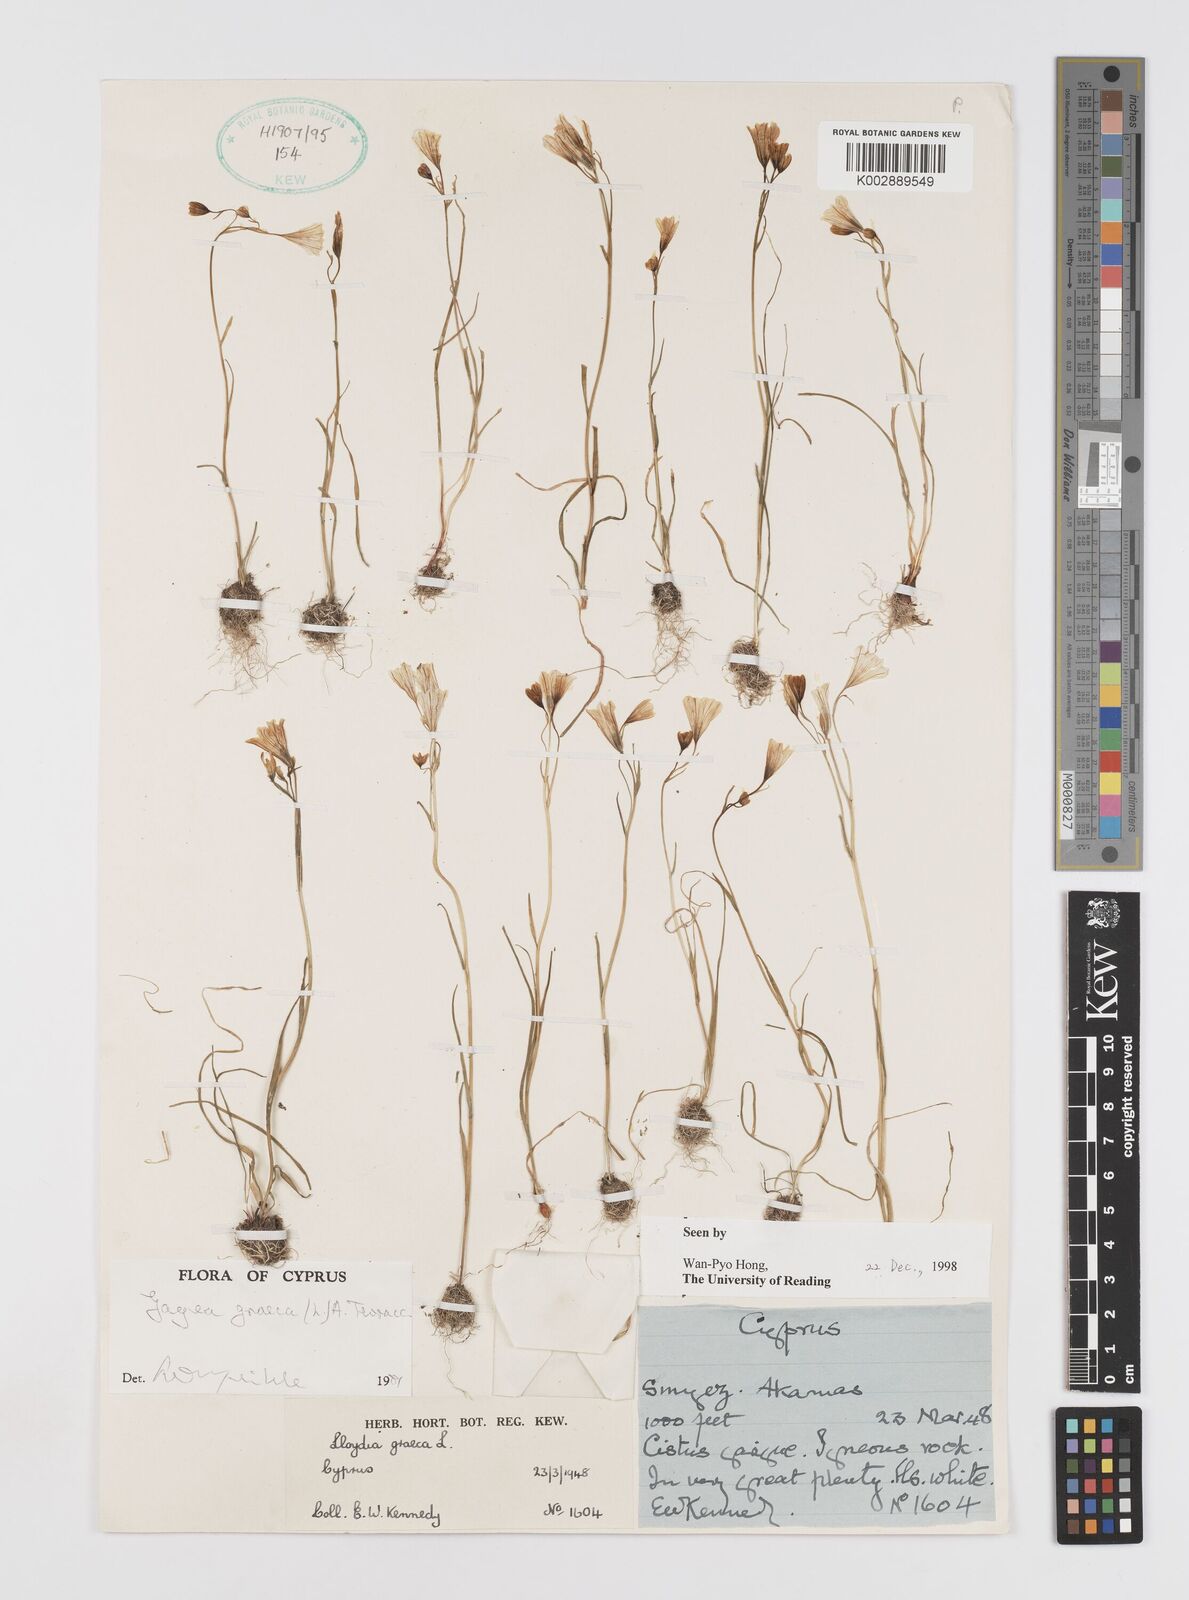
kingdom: Plantae
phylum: Tracheophyta
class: Liliopsida
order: Liliales
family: Liliaceae
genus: Gagea
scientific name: Gagea graeca
